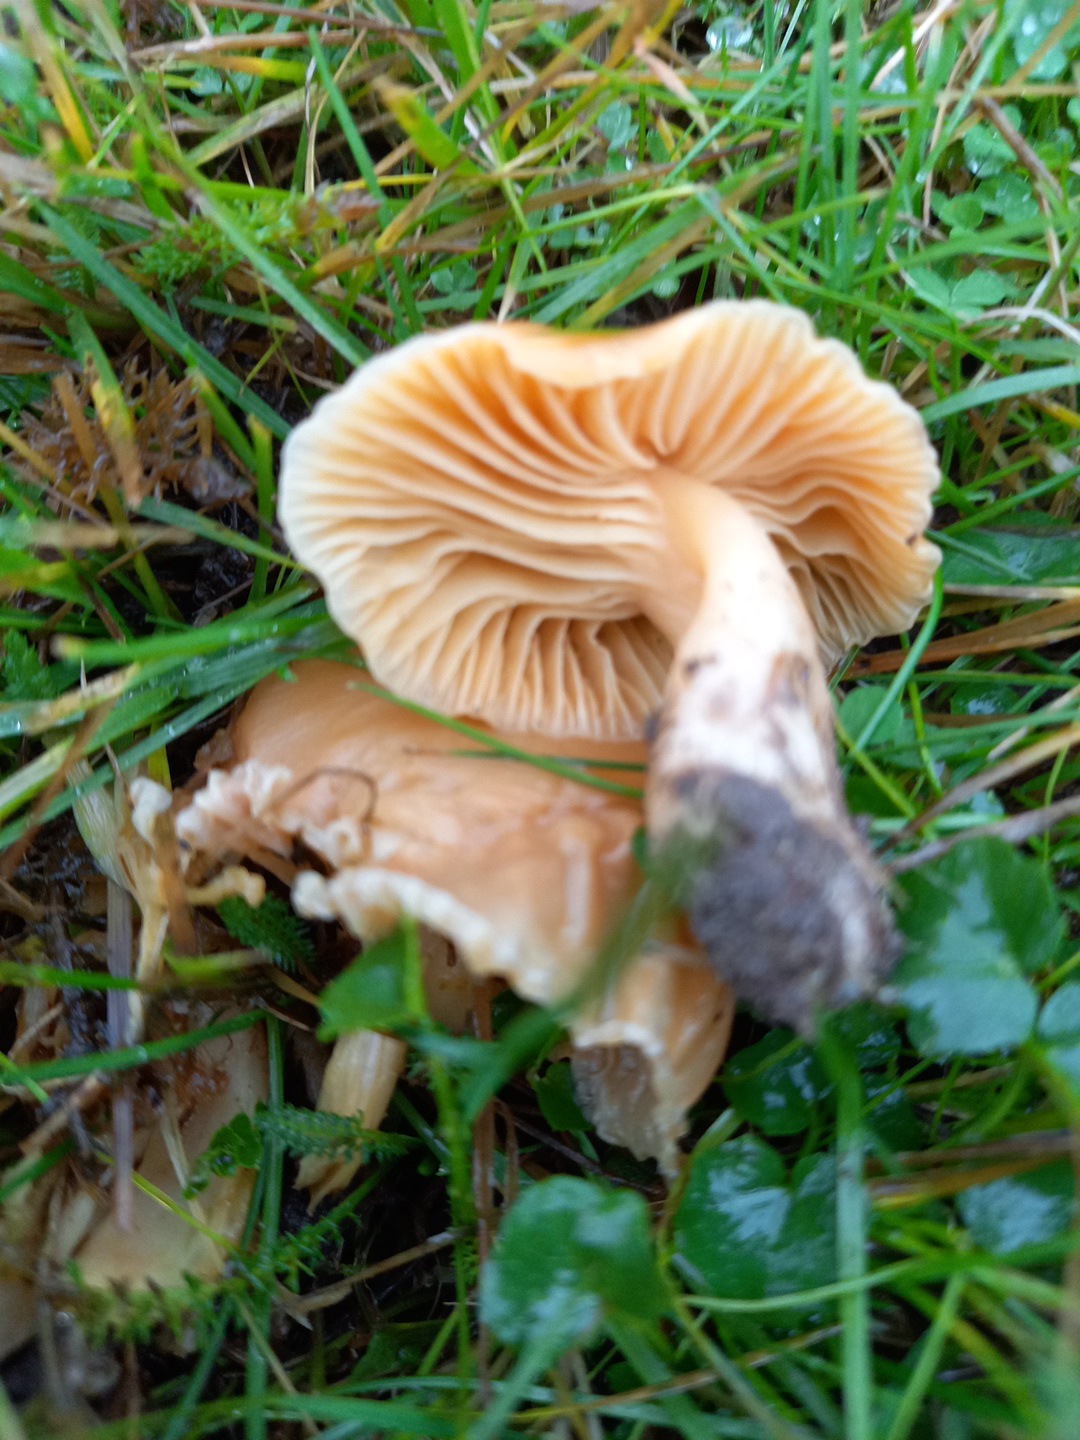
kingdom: Fungi
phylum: Basidiomycota
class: Agaricomycetes
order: Agaricales
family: Hygrophoraceae
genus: Cuphophyllus
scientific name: Cuphophyllus pratensis
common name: eng-vokshat
